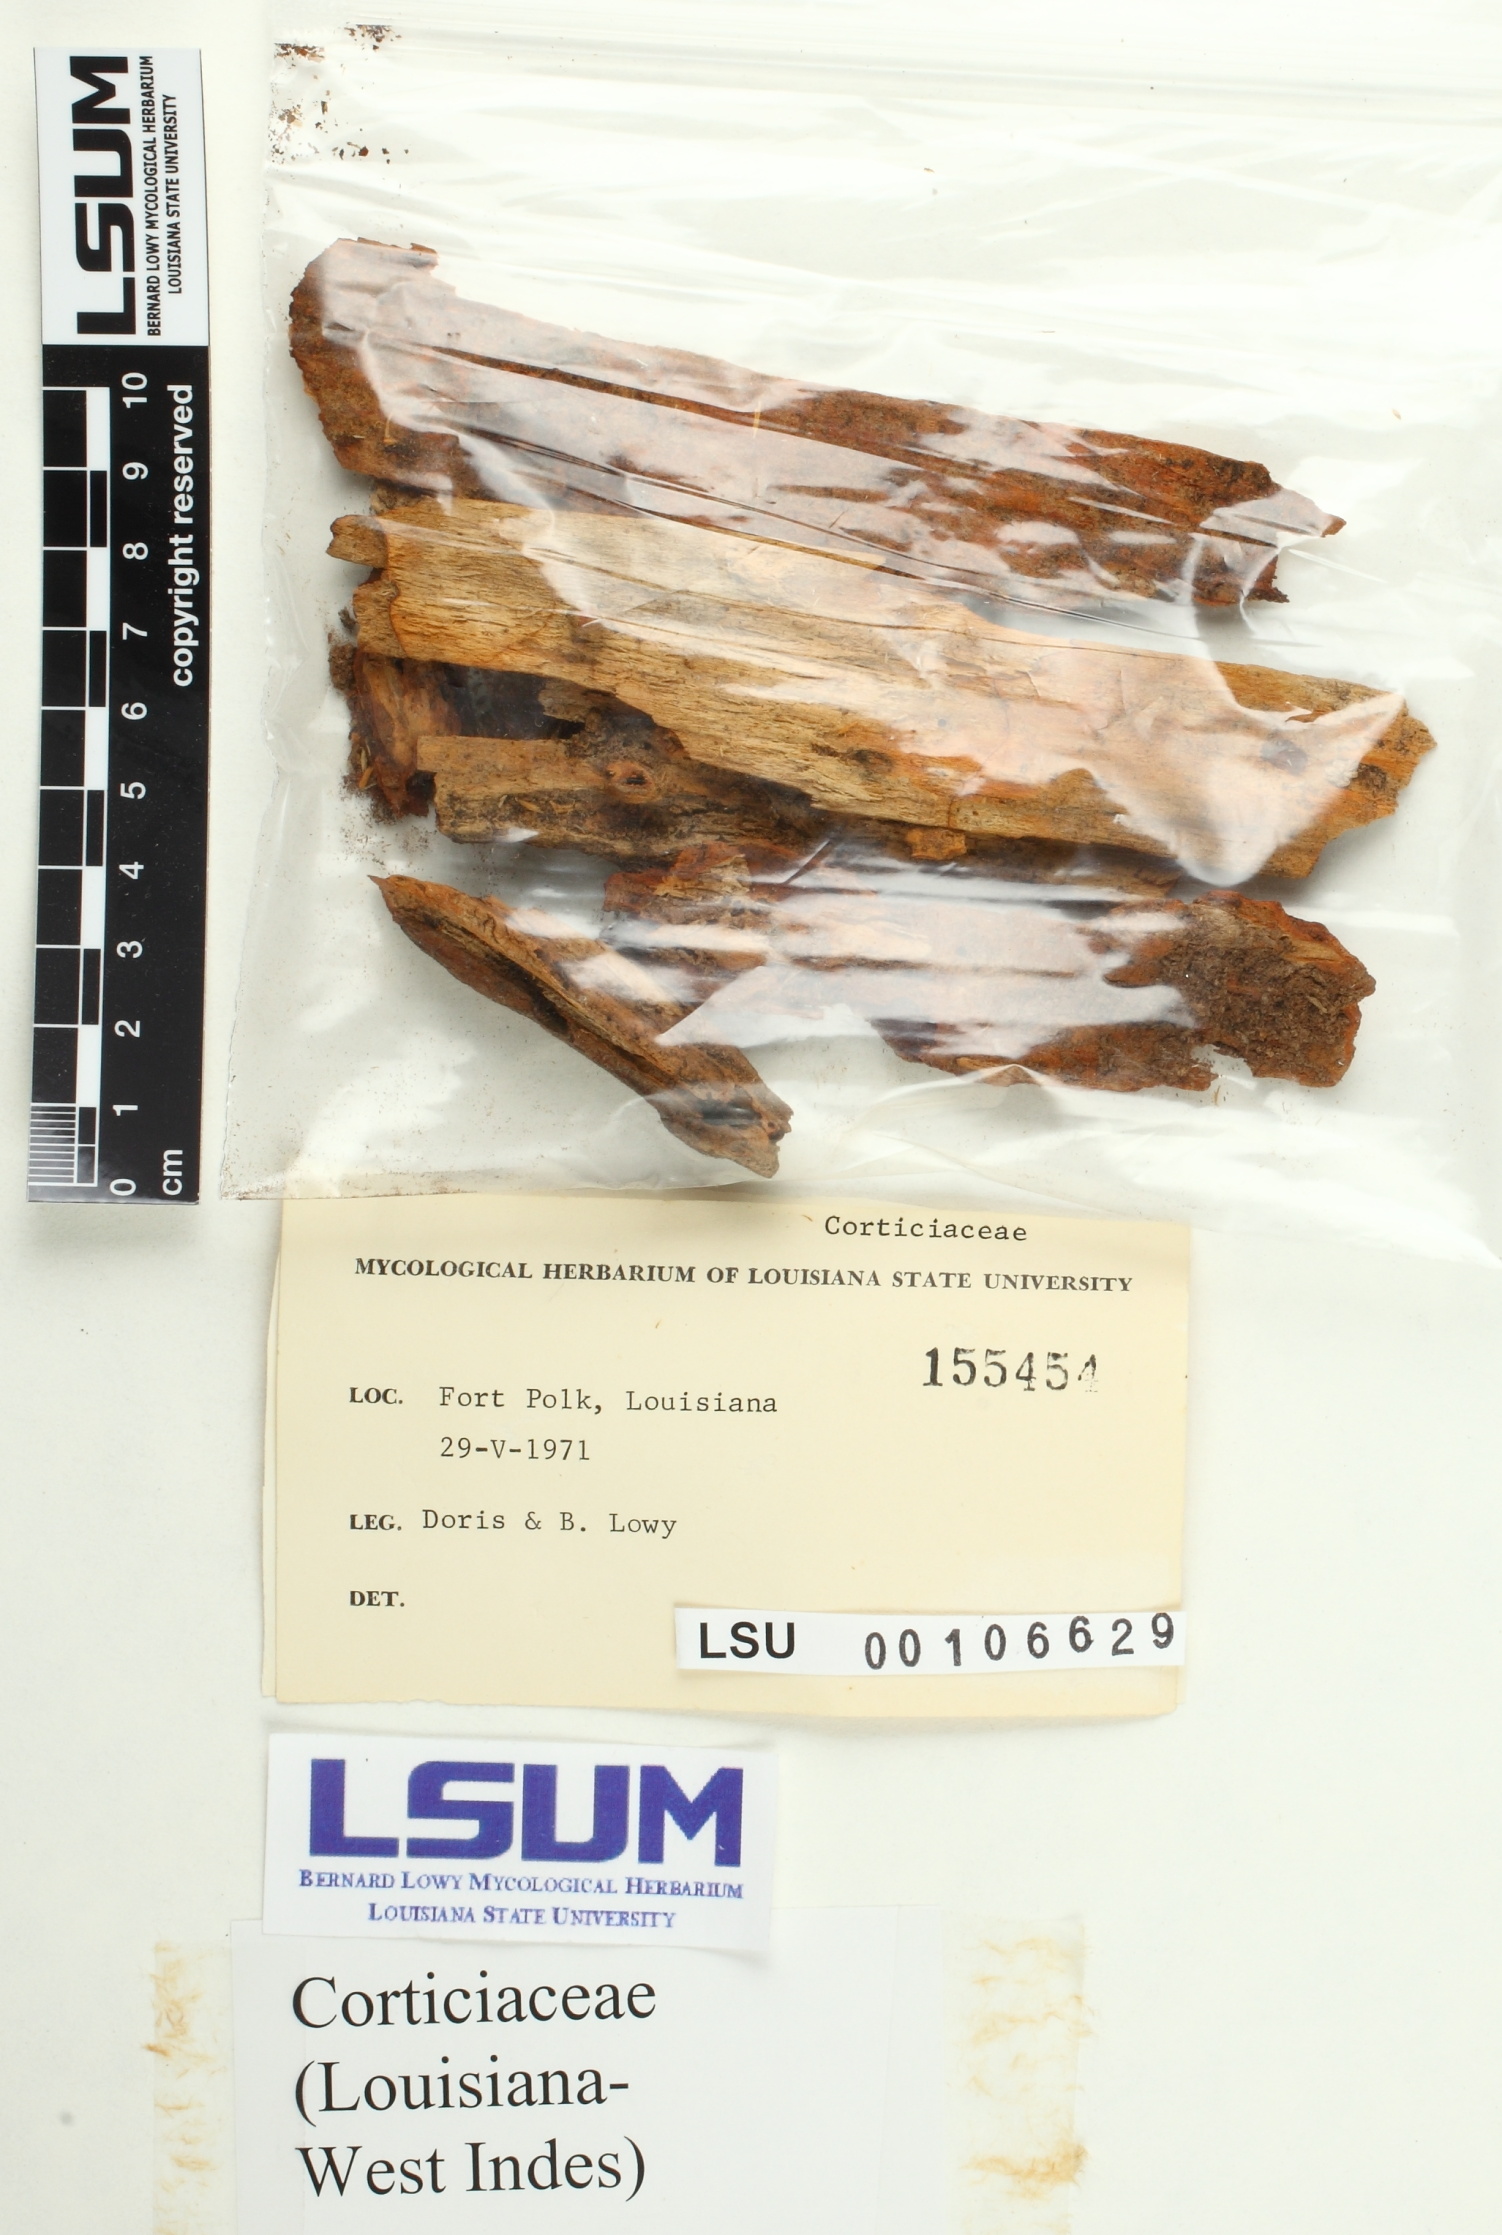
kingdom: Fungi
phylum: Basidiomycota
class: Agaricomycetes
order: Corticiales
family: Corticiaceae
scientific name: Corticiaceae
